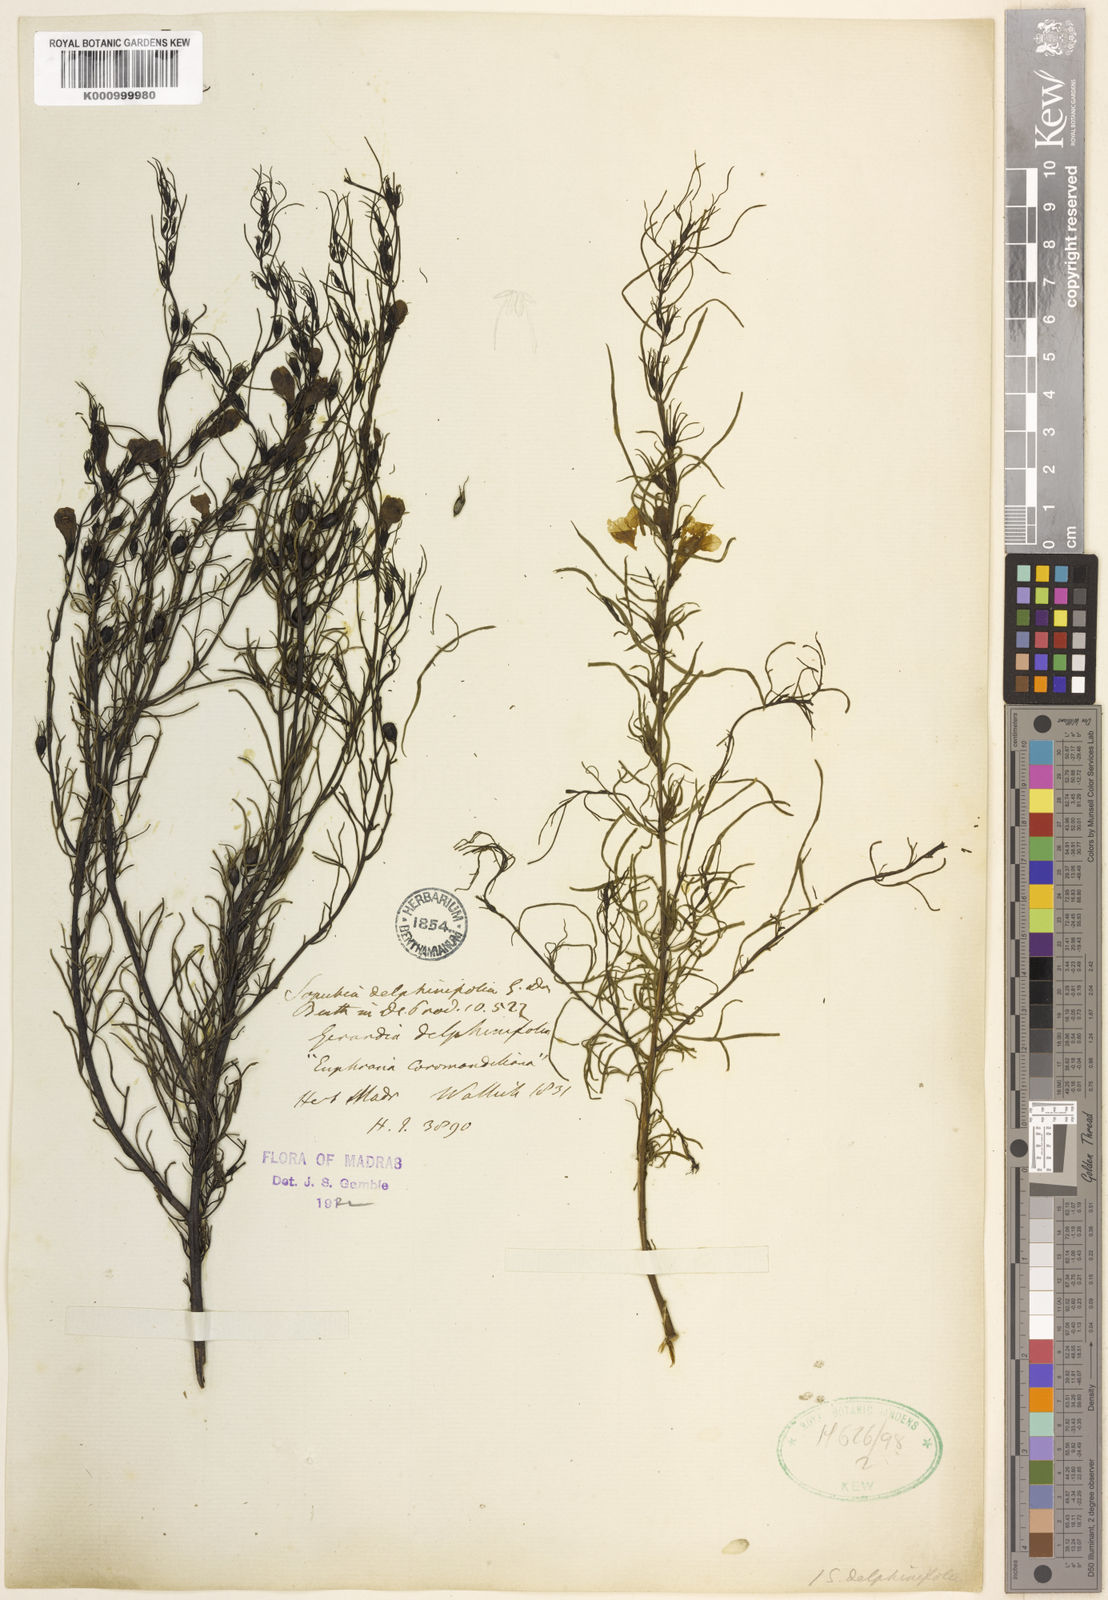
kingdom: Plantae
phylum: Tracheophyta
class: Magnoliopsida
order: Lamiales
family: Orobanchaceae
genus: Parasopubia
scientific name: Parasopubia delphiniifolia
